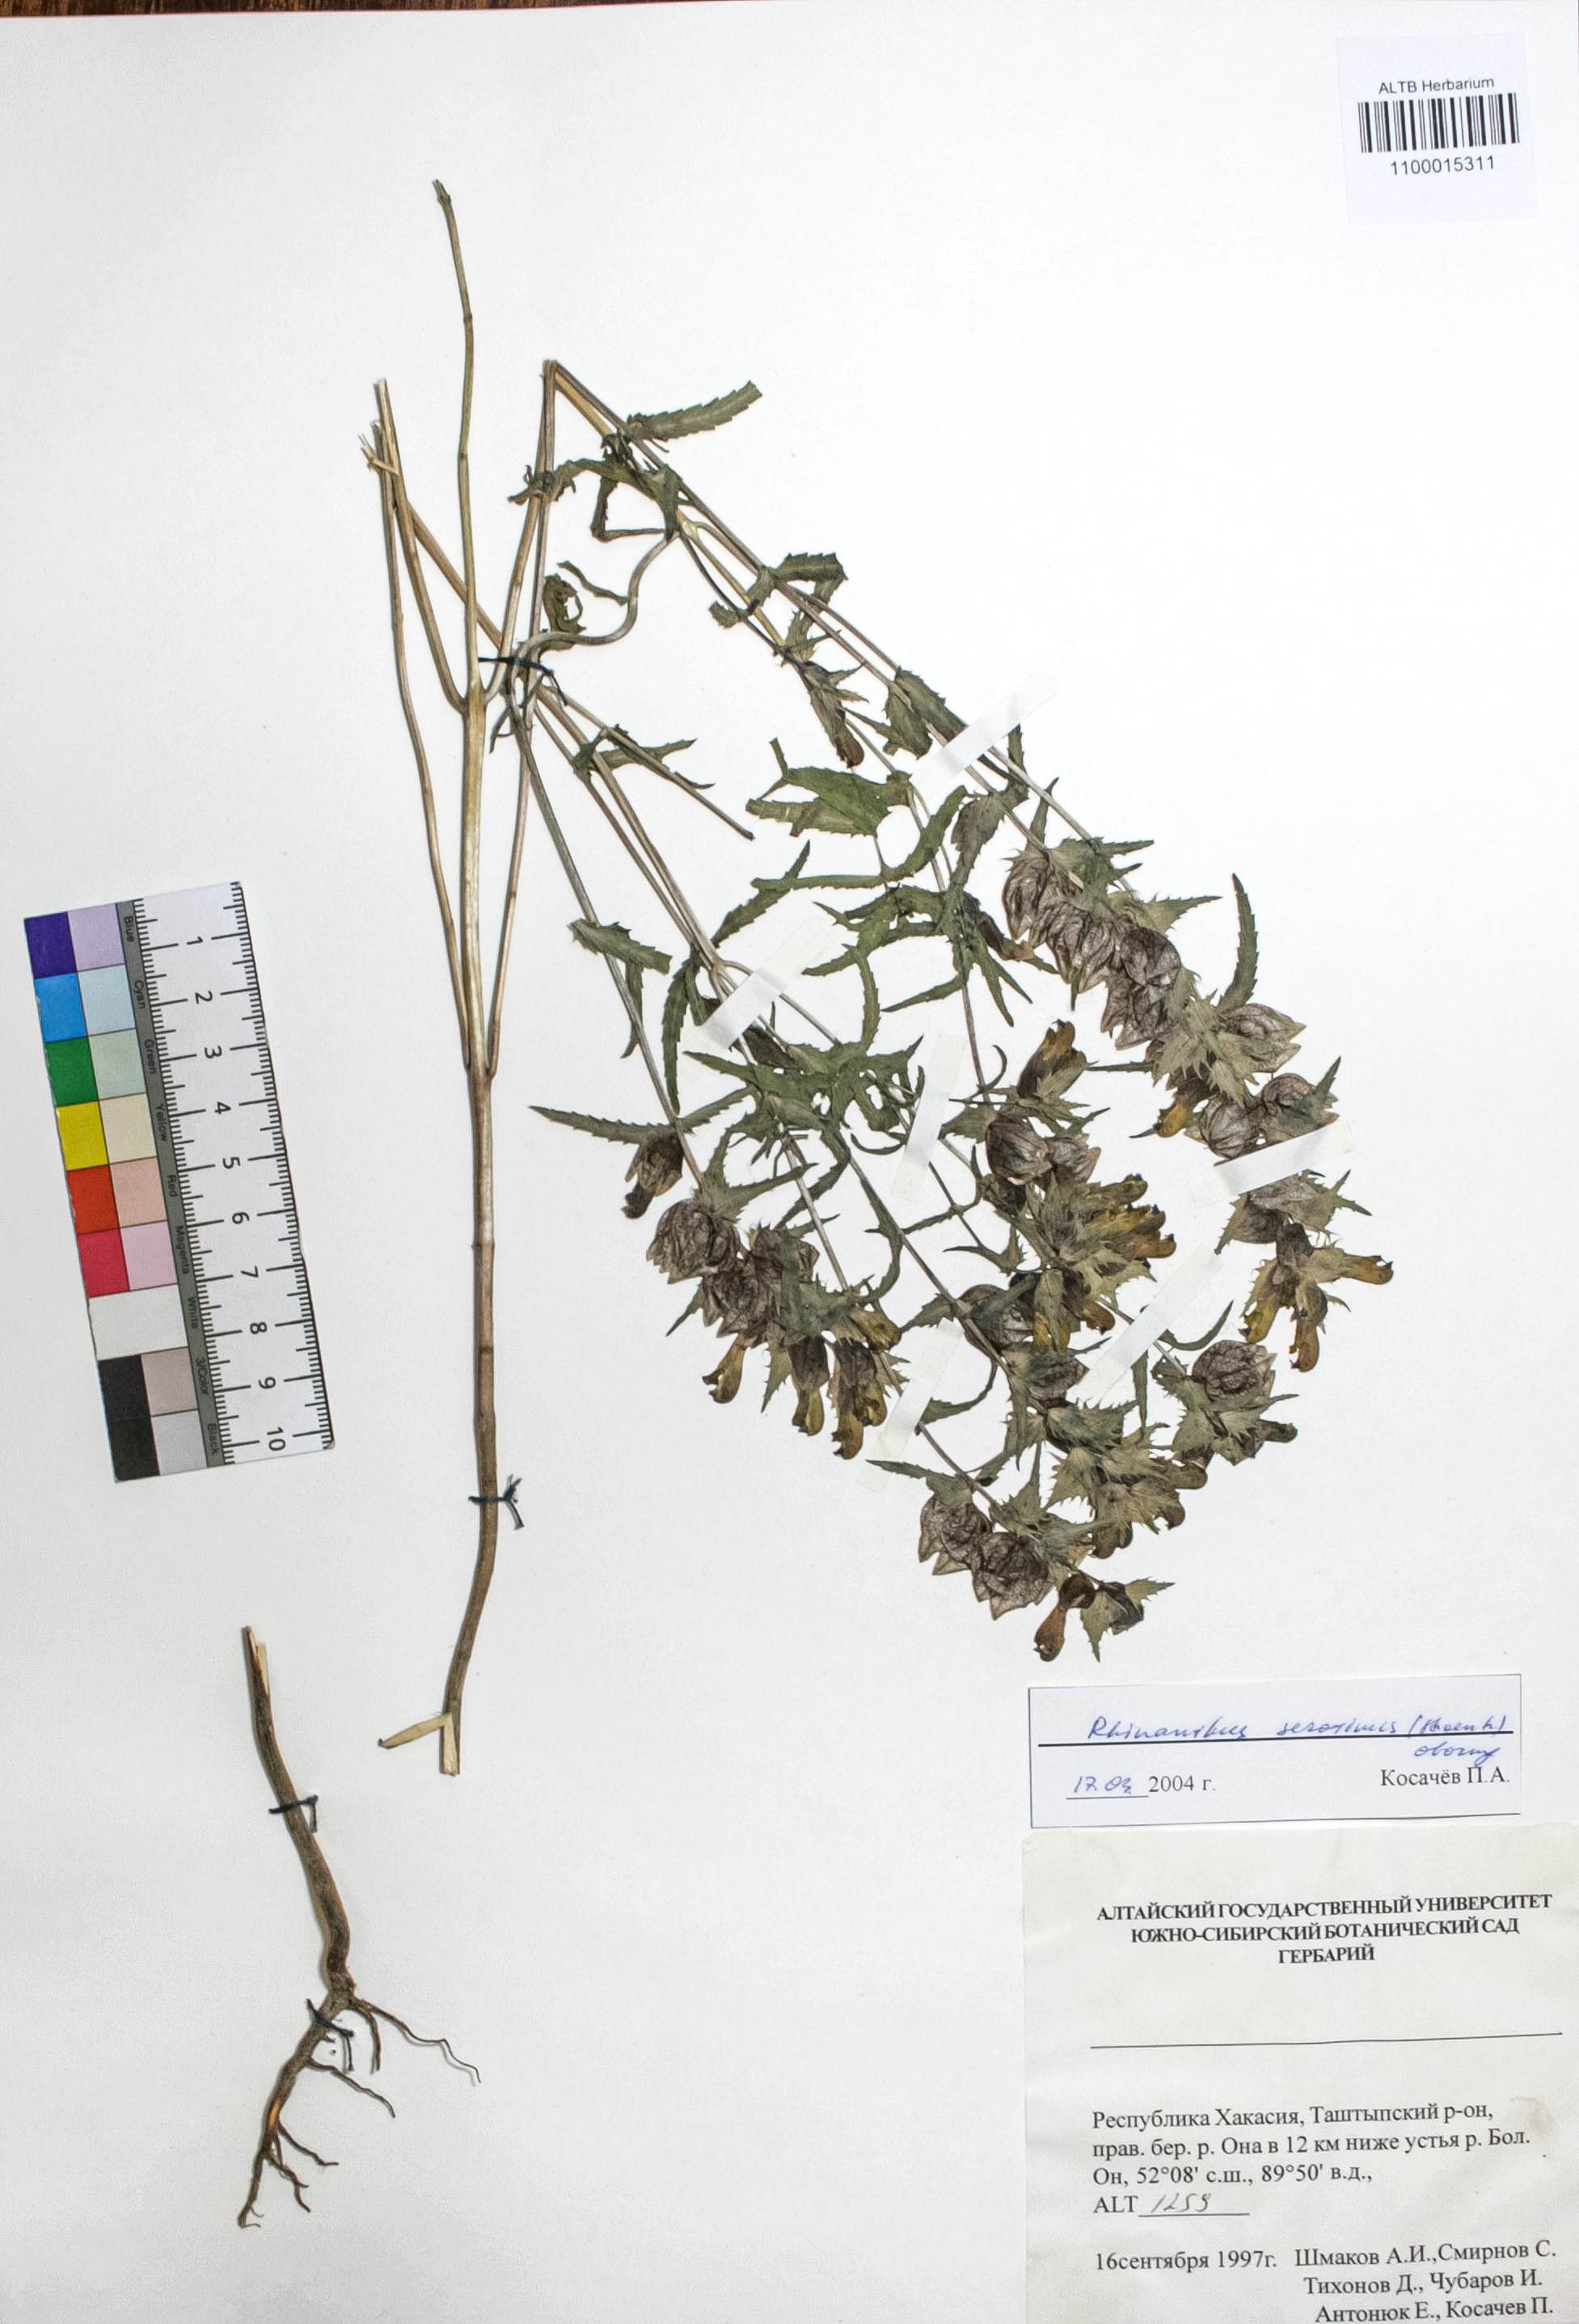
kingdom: Plantae
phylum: Tracheophyta
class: Magnoliopsida
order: Lamiales
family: Orobanchaceae
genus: Rhinanthus
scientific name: Rhinanthus serotinus
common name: Late-flowering yellow rattle
